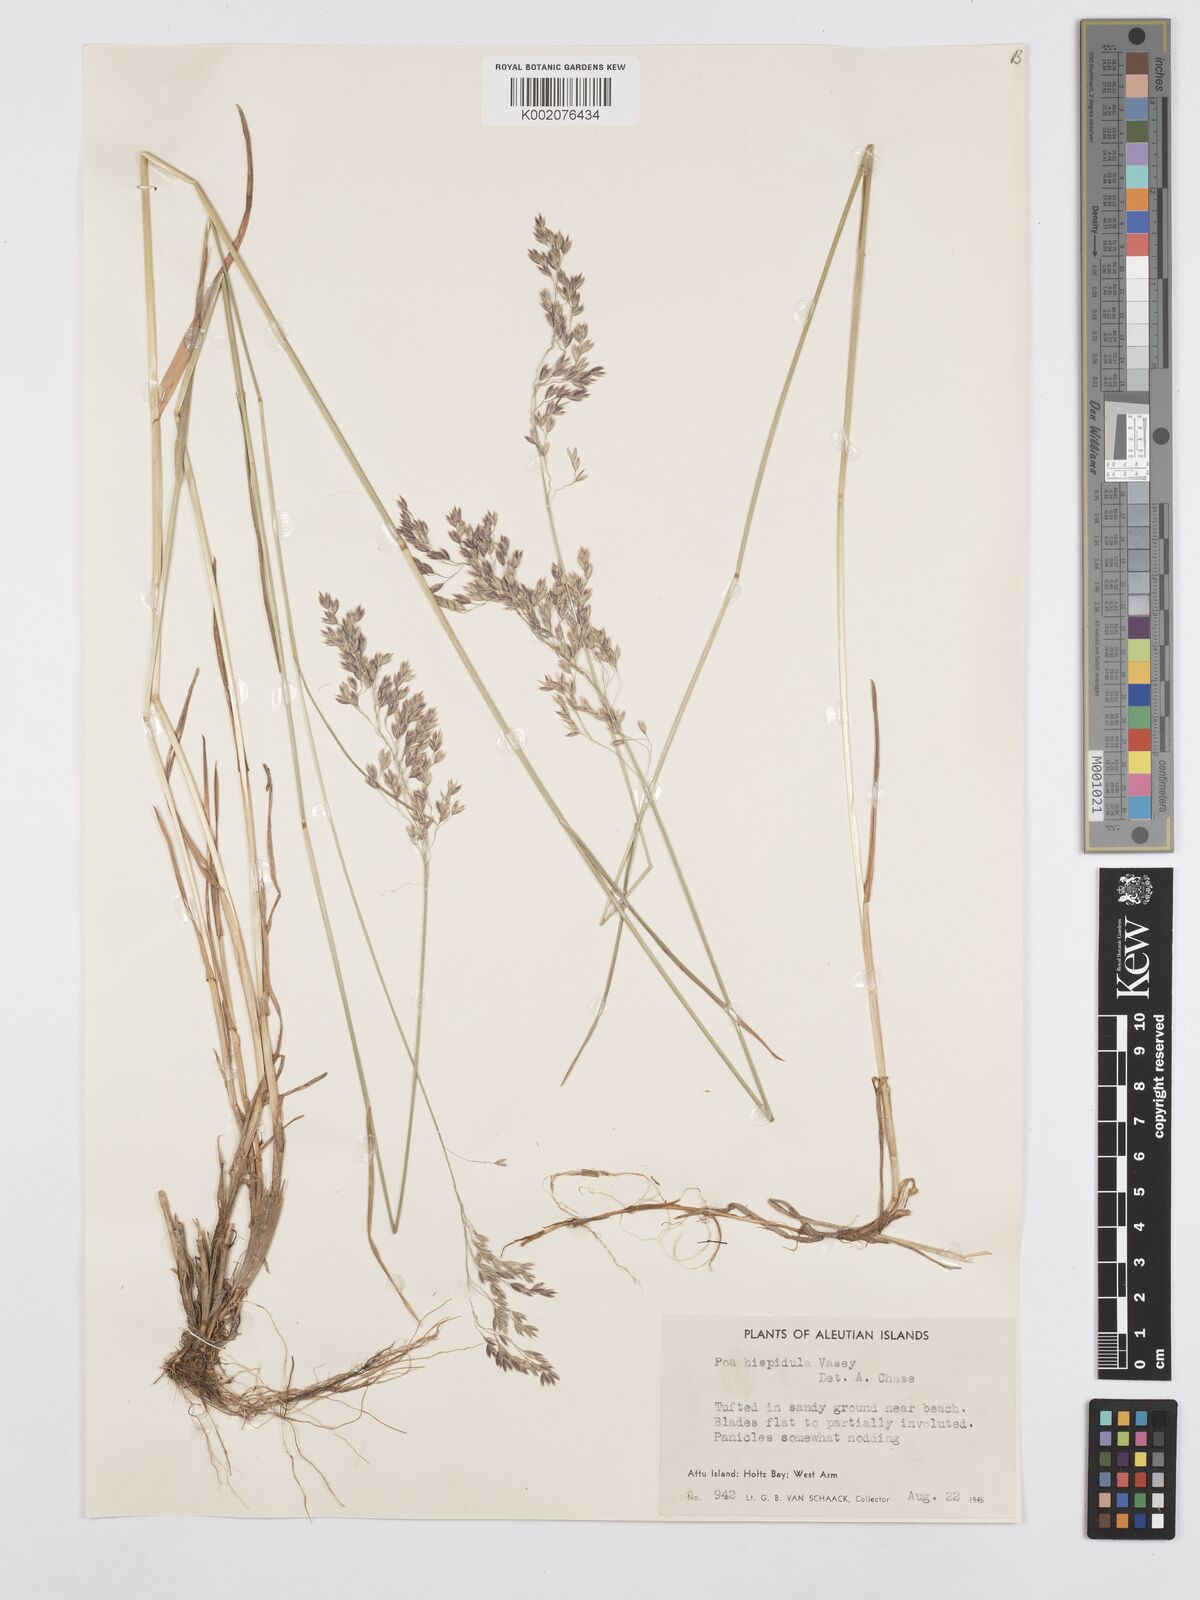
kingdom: Plantae
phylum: Tracheophyta
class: Liliopsida
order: Poales
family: Poaceae
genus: Poa
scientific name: Poa macrocalyx
